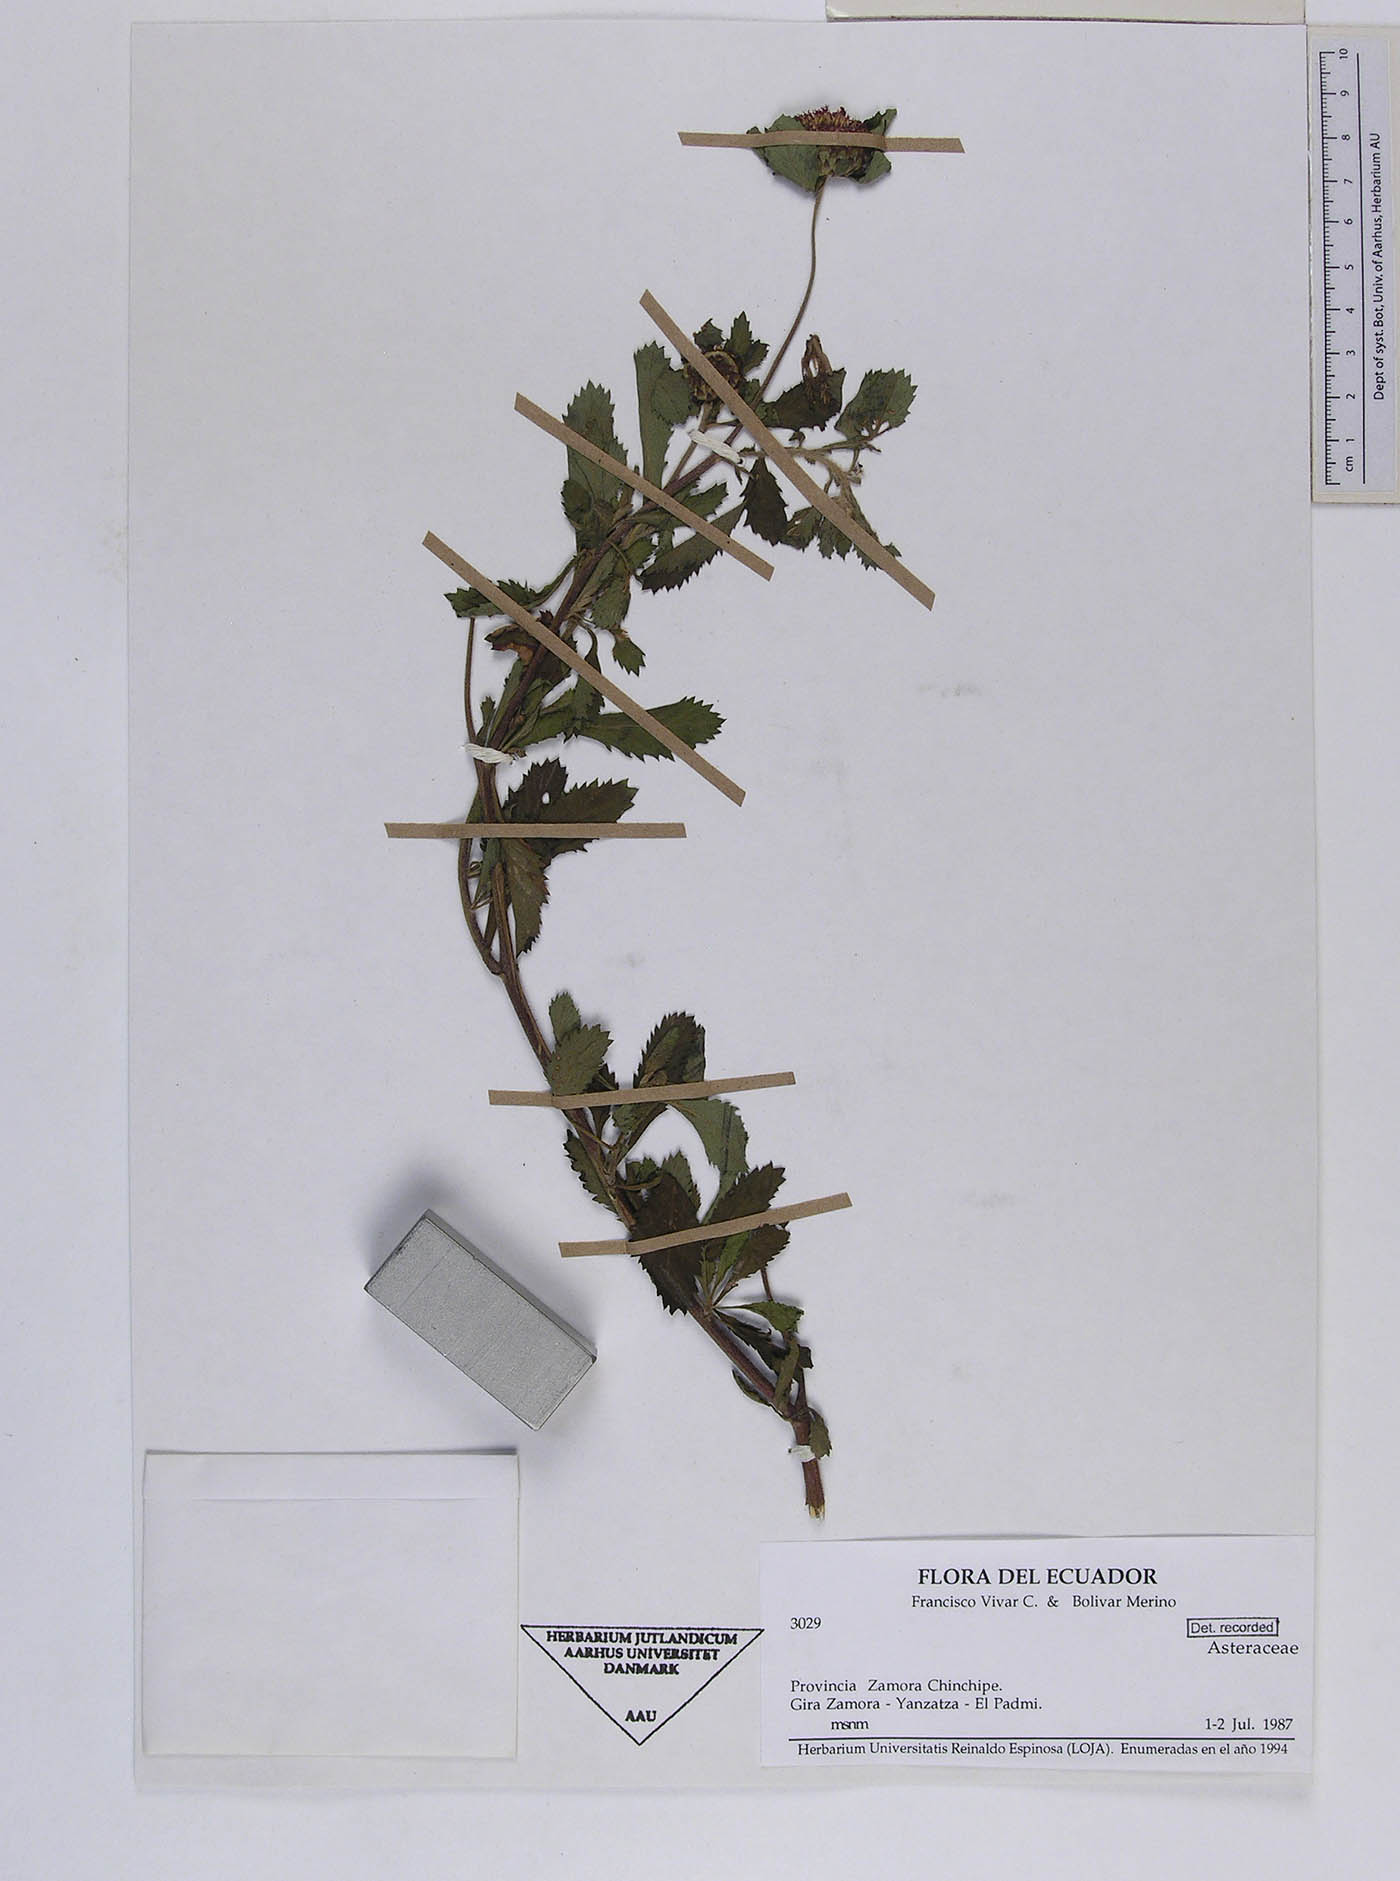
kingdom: Plantae
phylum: Tracheophyta
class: Magnoliopsida
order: Asterales
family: Asteraceae
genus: Centratherum
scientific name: Centratherum punctatum
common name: Larkdaisy
